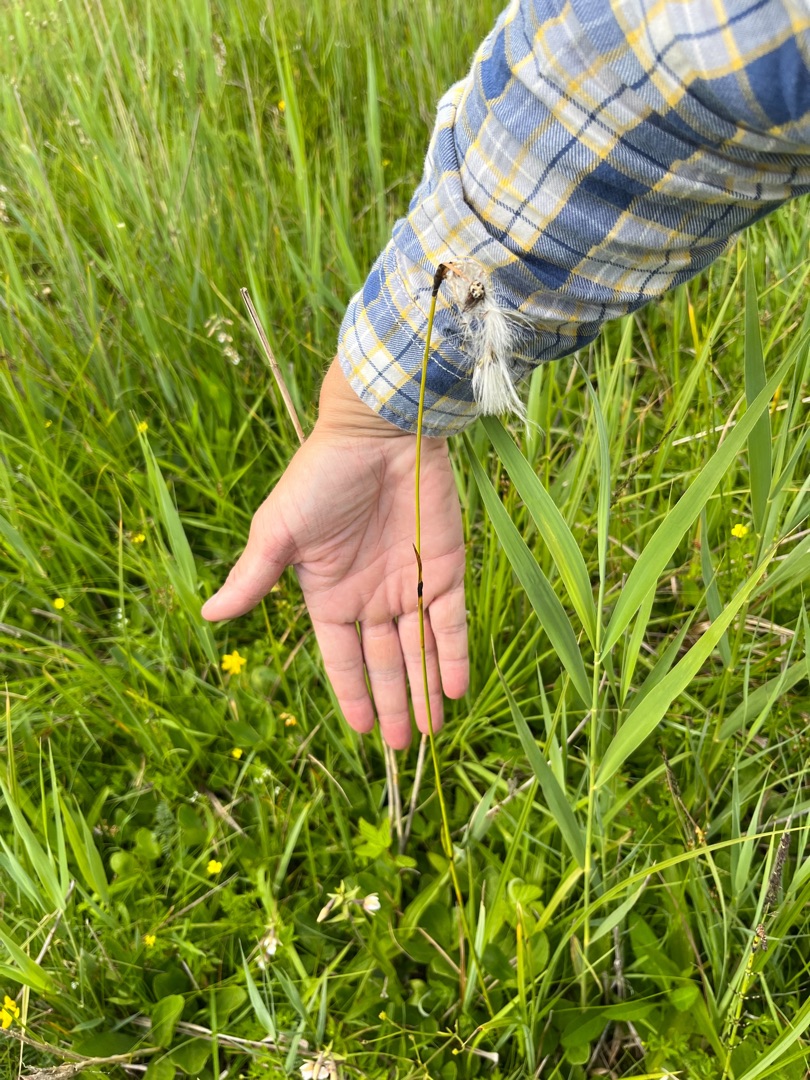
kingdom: Plantae
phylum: Tracheophyta
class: Liliopsida
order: Poales
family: Cyperaceae
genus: Eriophorum
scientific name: Eriophorum latifolium
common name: Bredbladet kæruld
